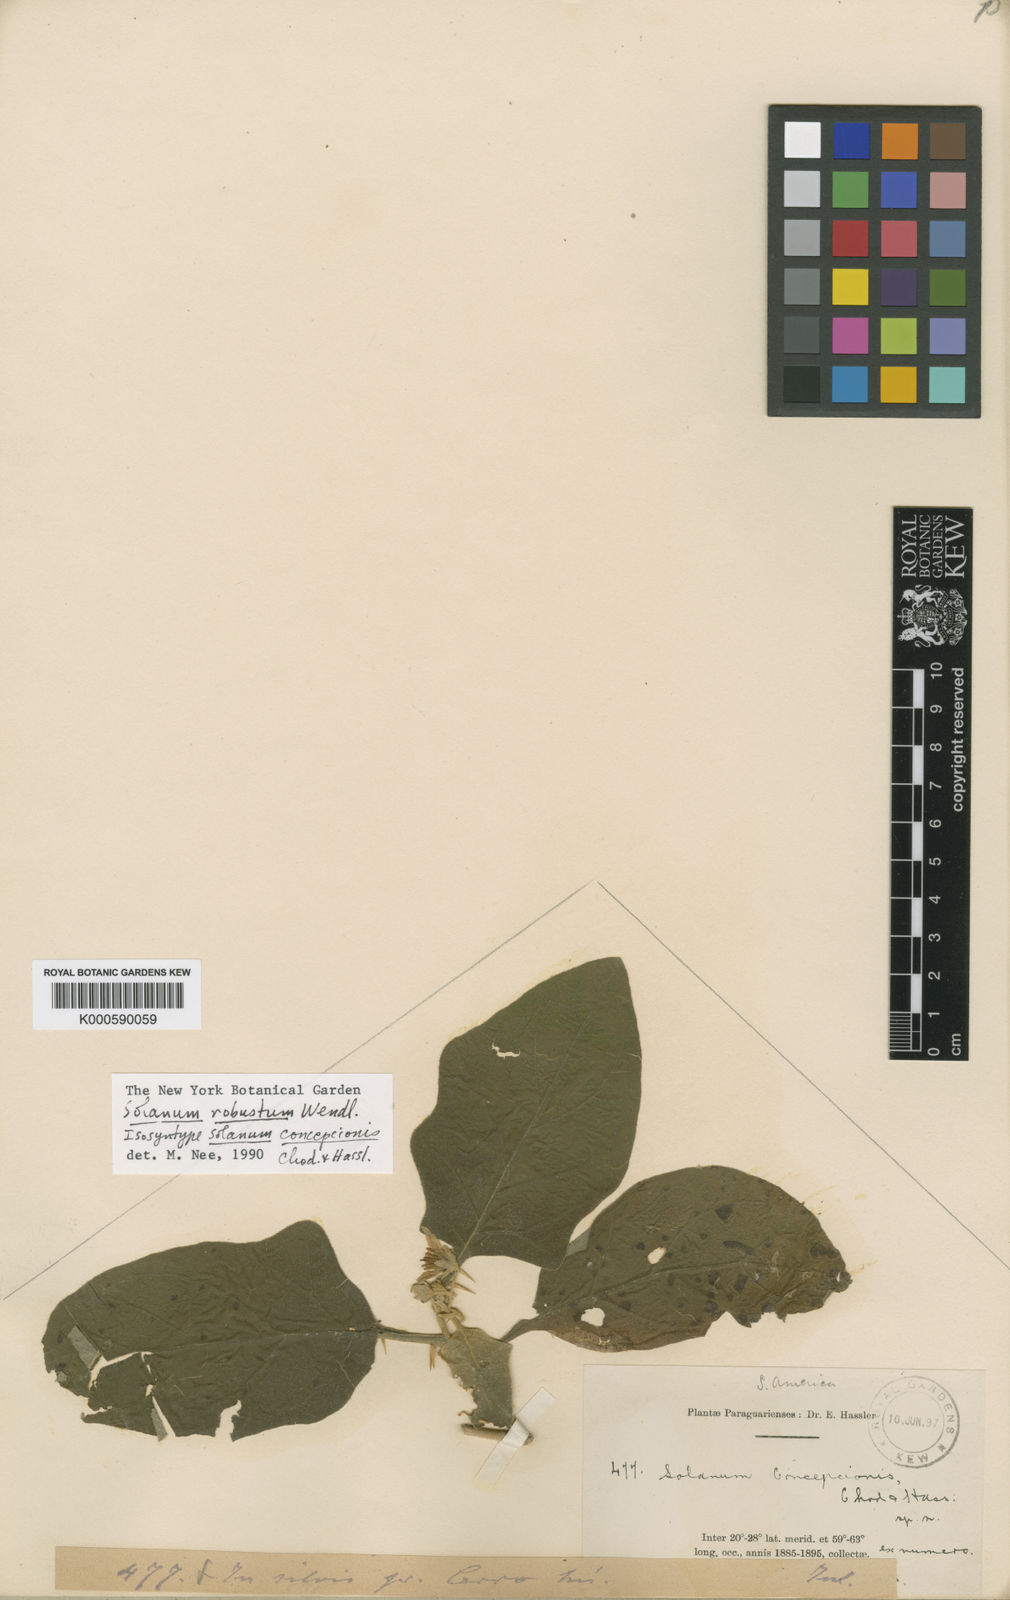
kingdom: Plantae
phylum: Tracheophyta
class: Magnoliopsida
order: Solanales
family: Solanaceae
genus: Solanum
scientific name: Solanum robustum
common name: Shrubby nightshade
